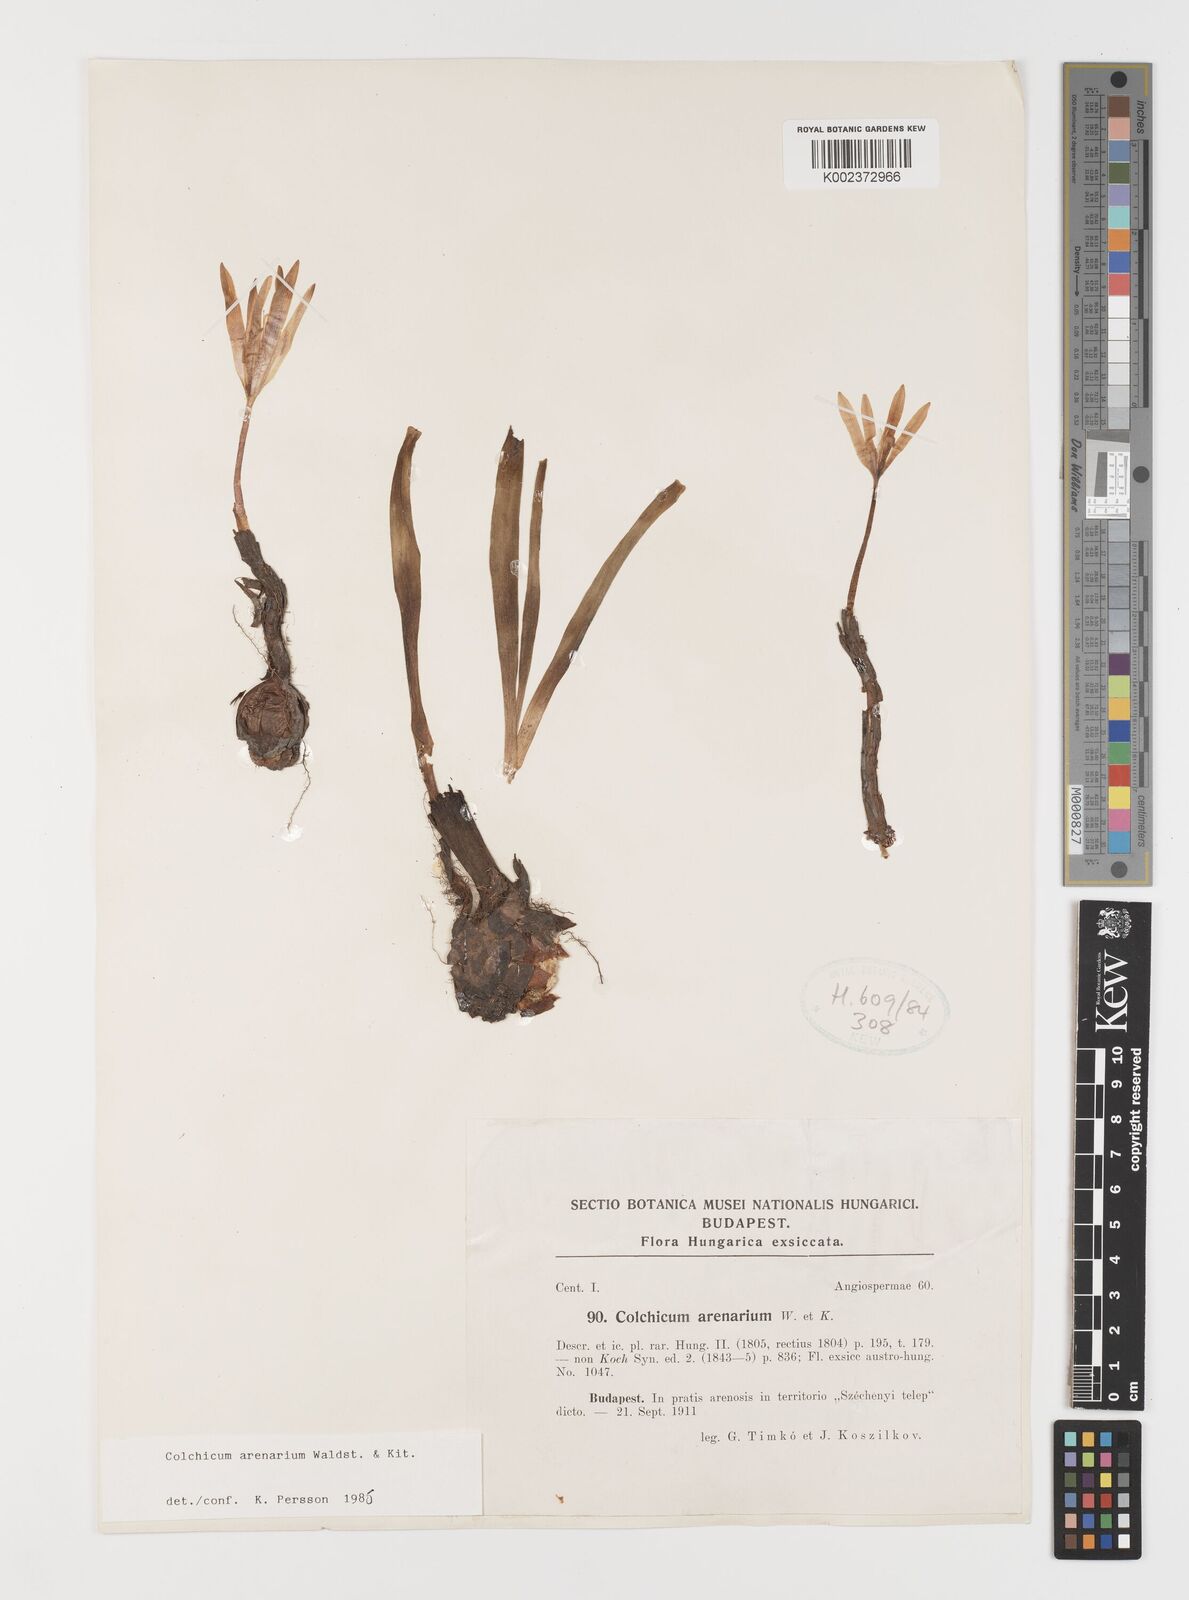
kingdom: Plantae
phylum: Tracheophyta
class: Liliopsida
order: Liliales
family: Colchicaceae
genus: Colchicum
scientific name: Colchicum arenarium
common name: Sand saffron
